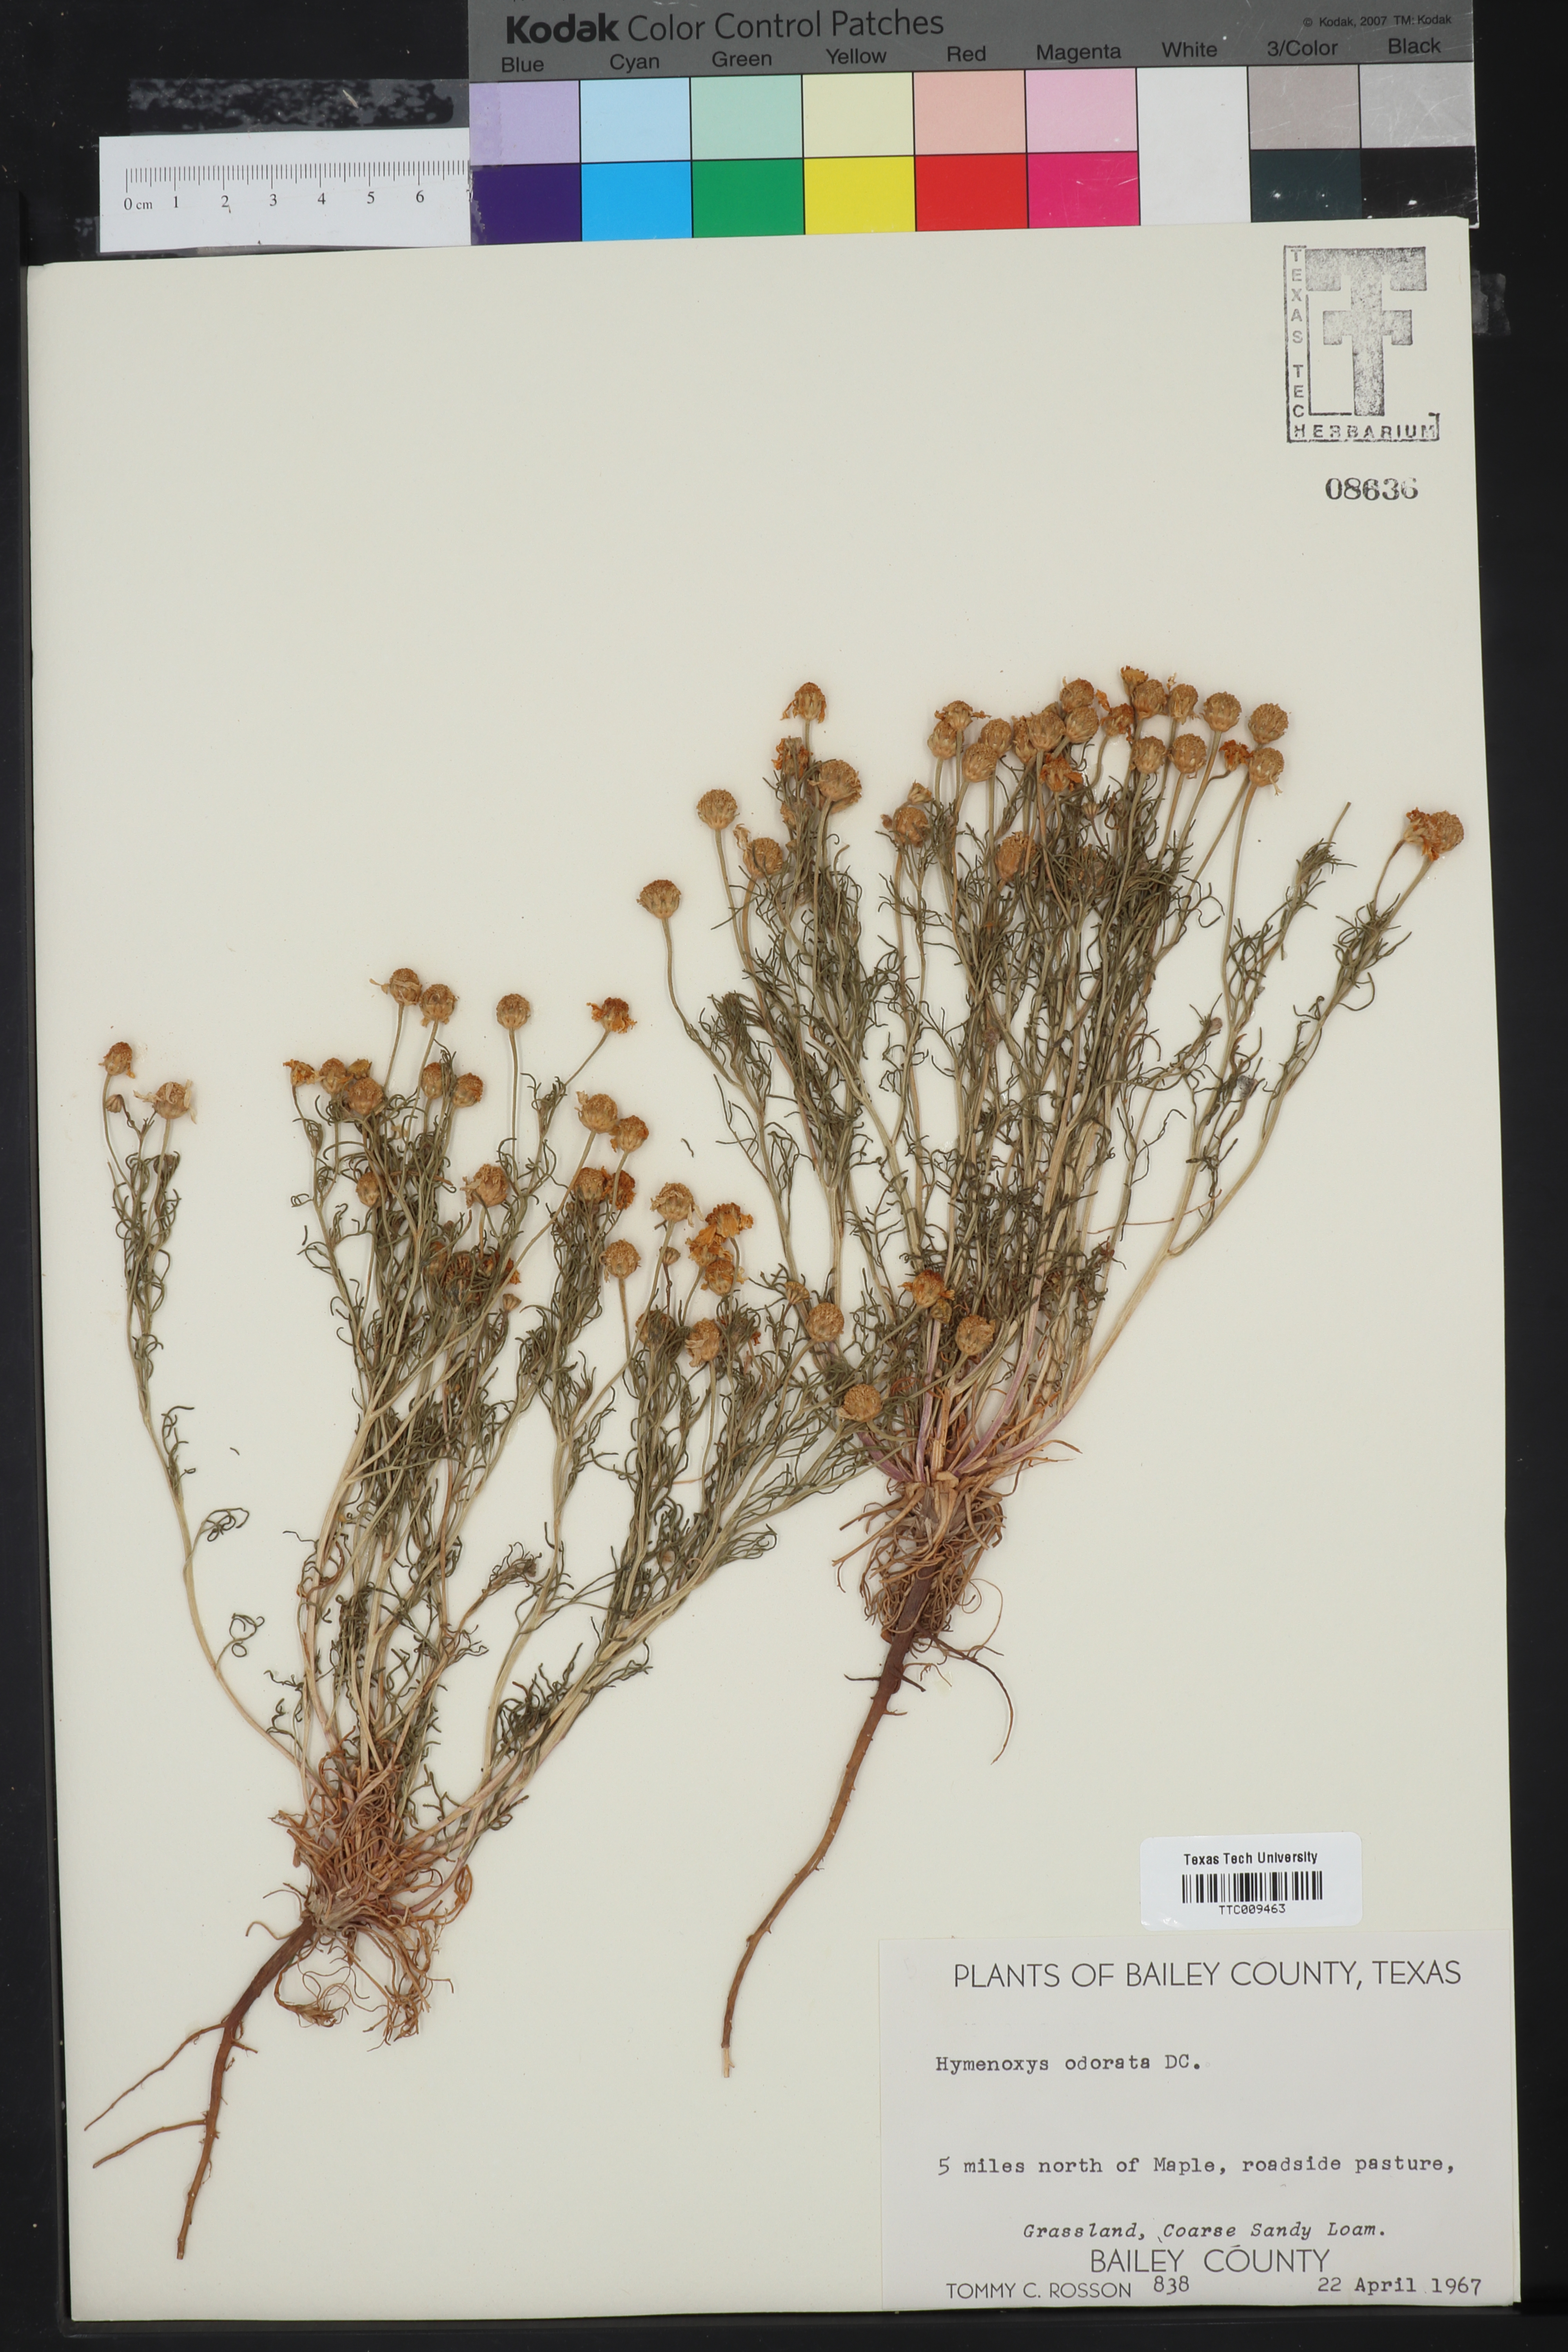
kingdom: Plantae
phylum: Tracheophyta
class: Magnoliopsida
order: Asterales
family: Asteraceae
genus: Hymenoxys
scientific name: Hymenoxys odorata
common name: Bitter rubberweed
